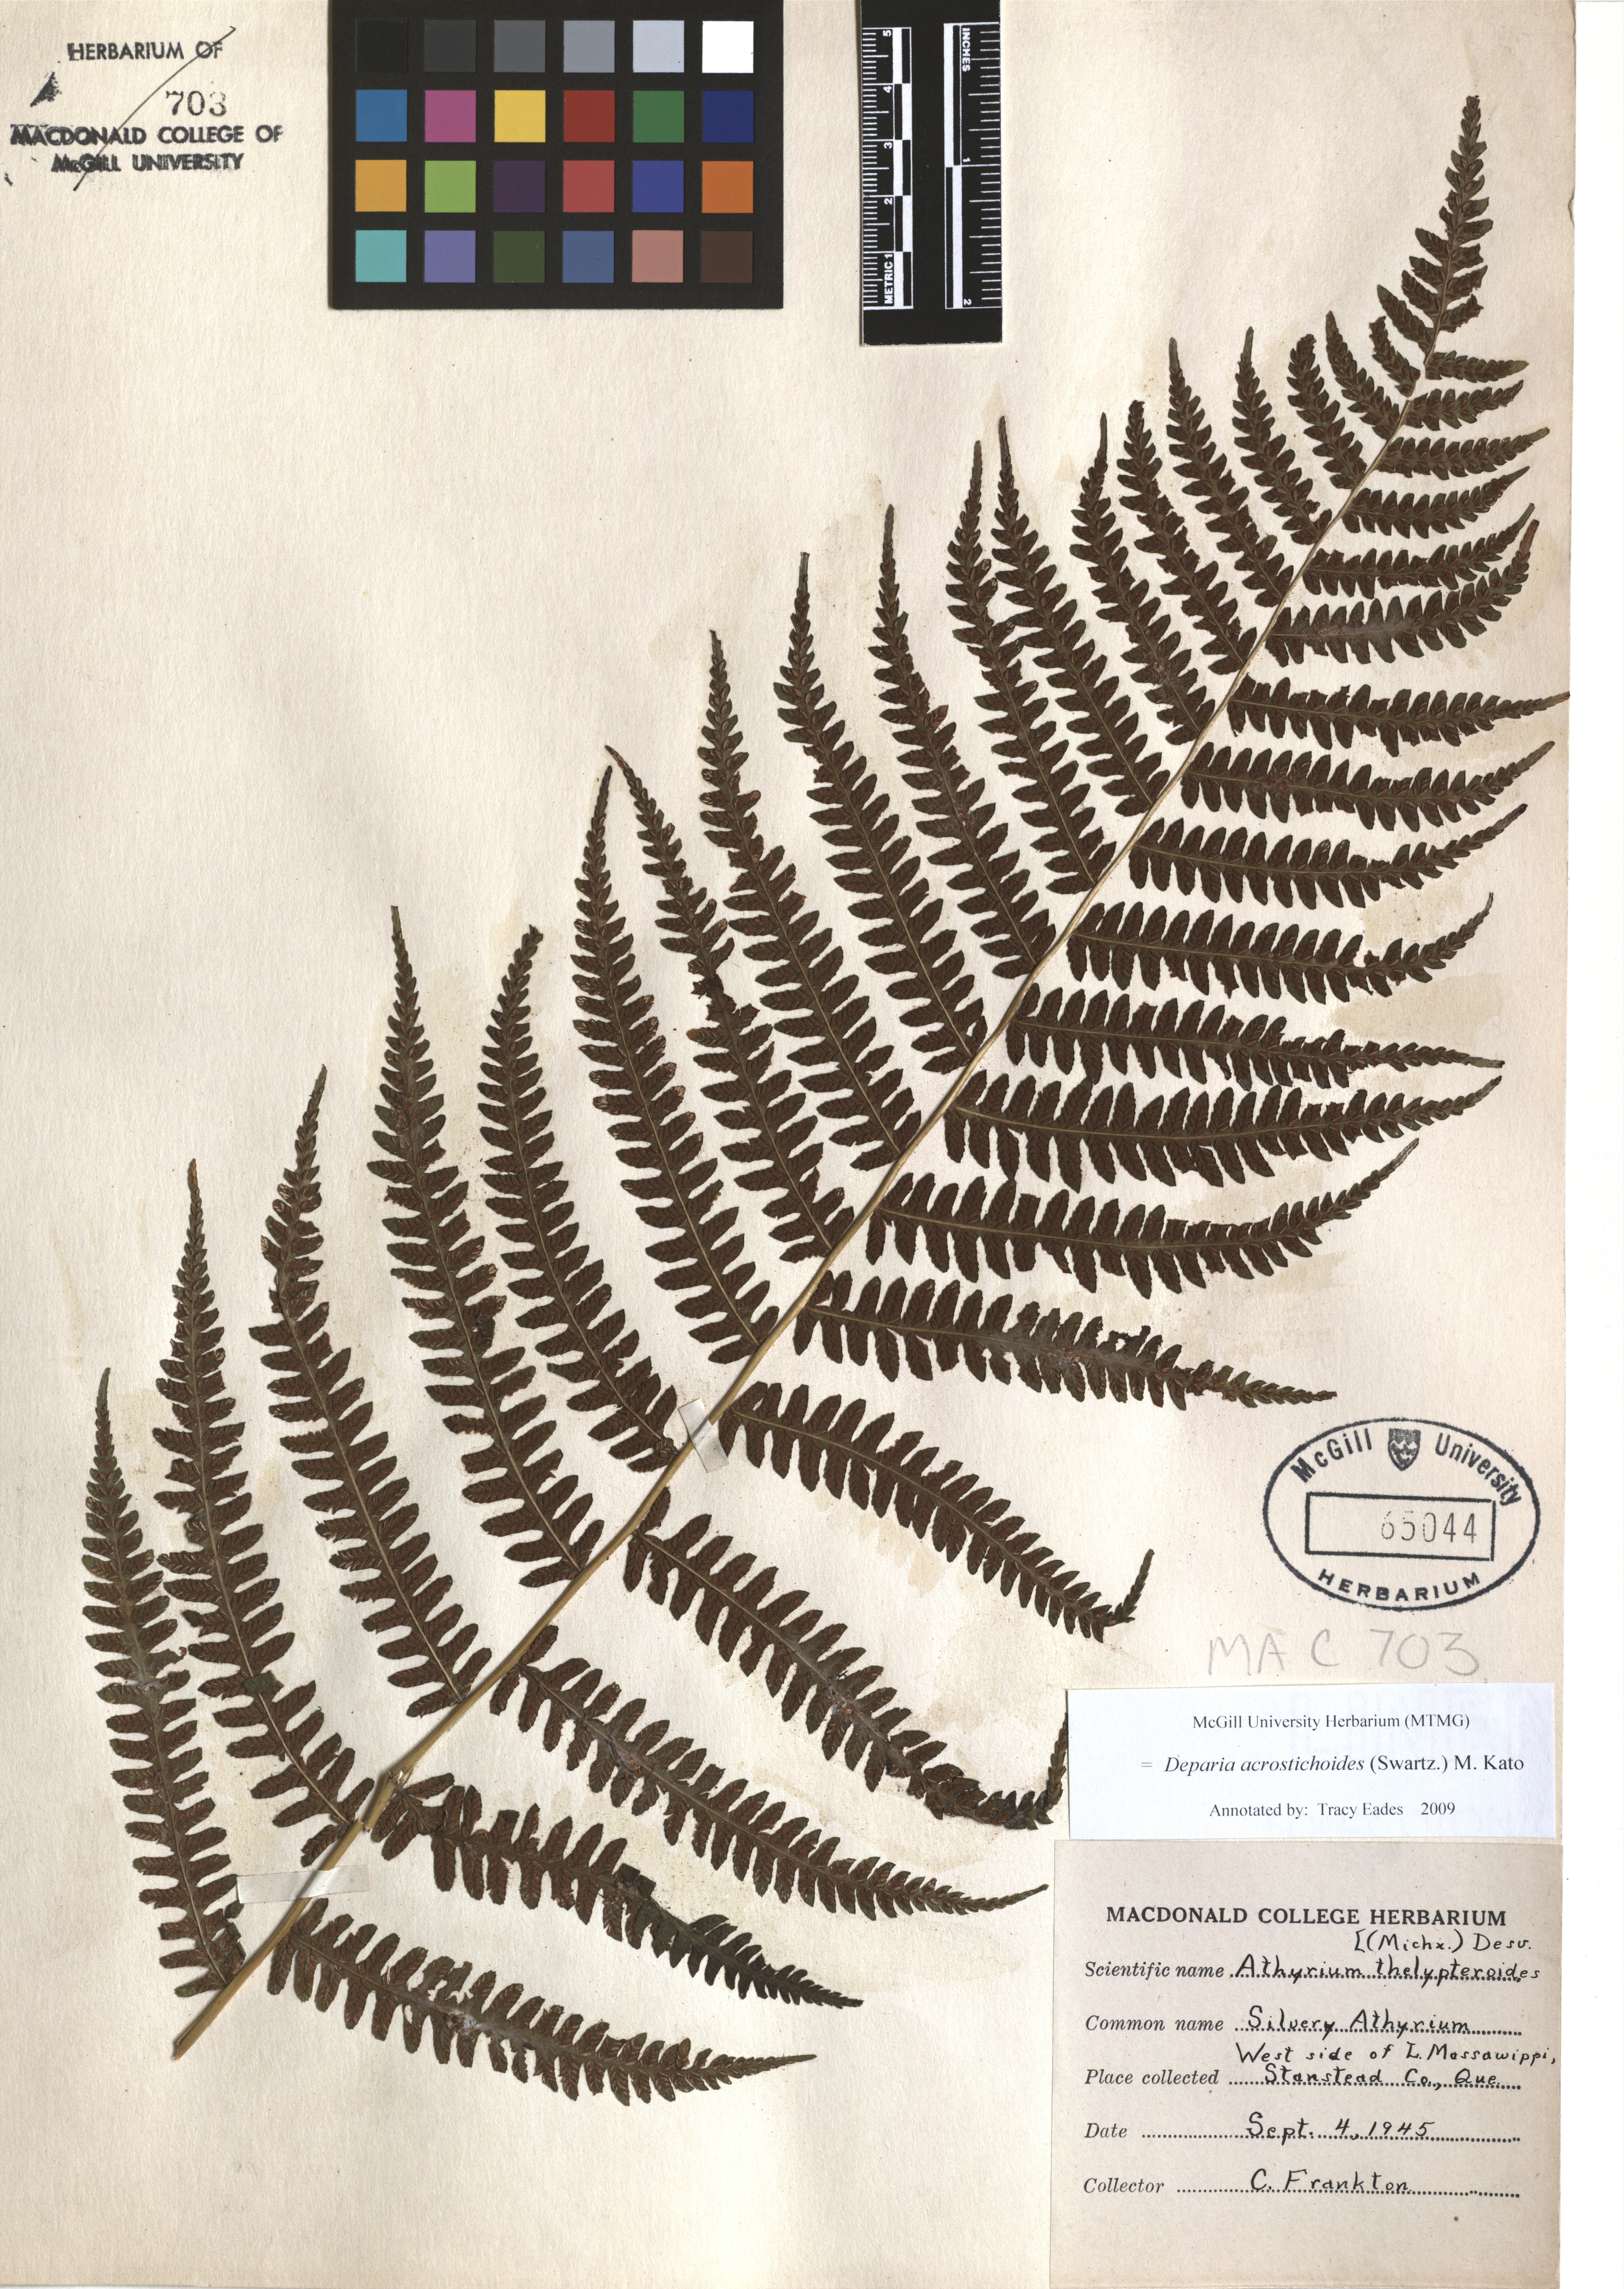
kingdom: Plantae
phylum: Tracheophyta
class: Polypodiopsida
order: Polypodiales
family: Athyriaceae
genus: Deparia
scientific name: Deparia acrostichoides
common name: Silver false spleenwort
